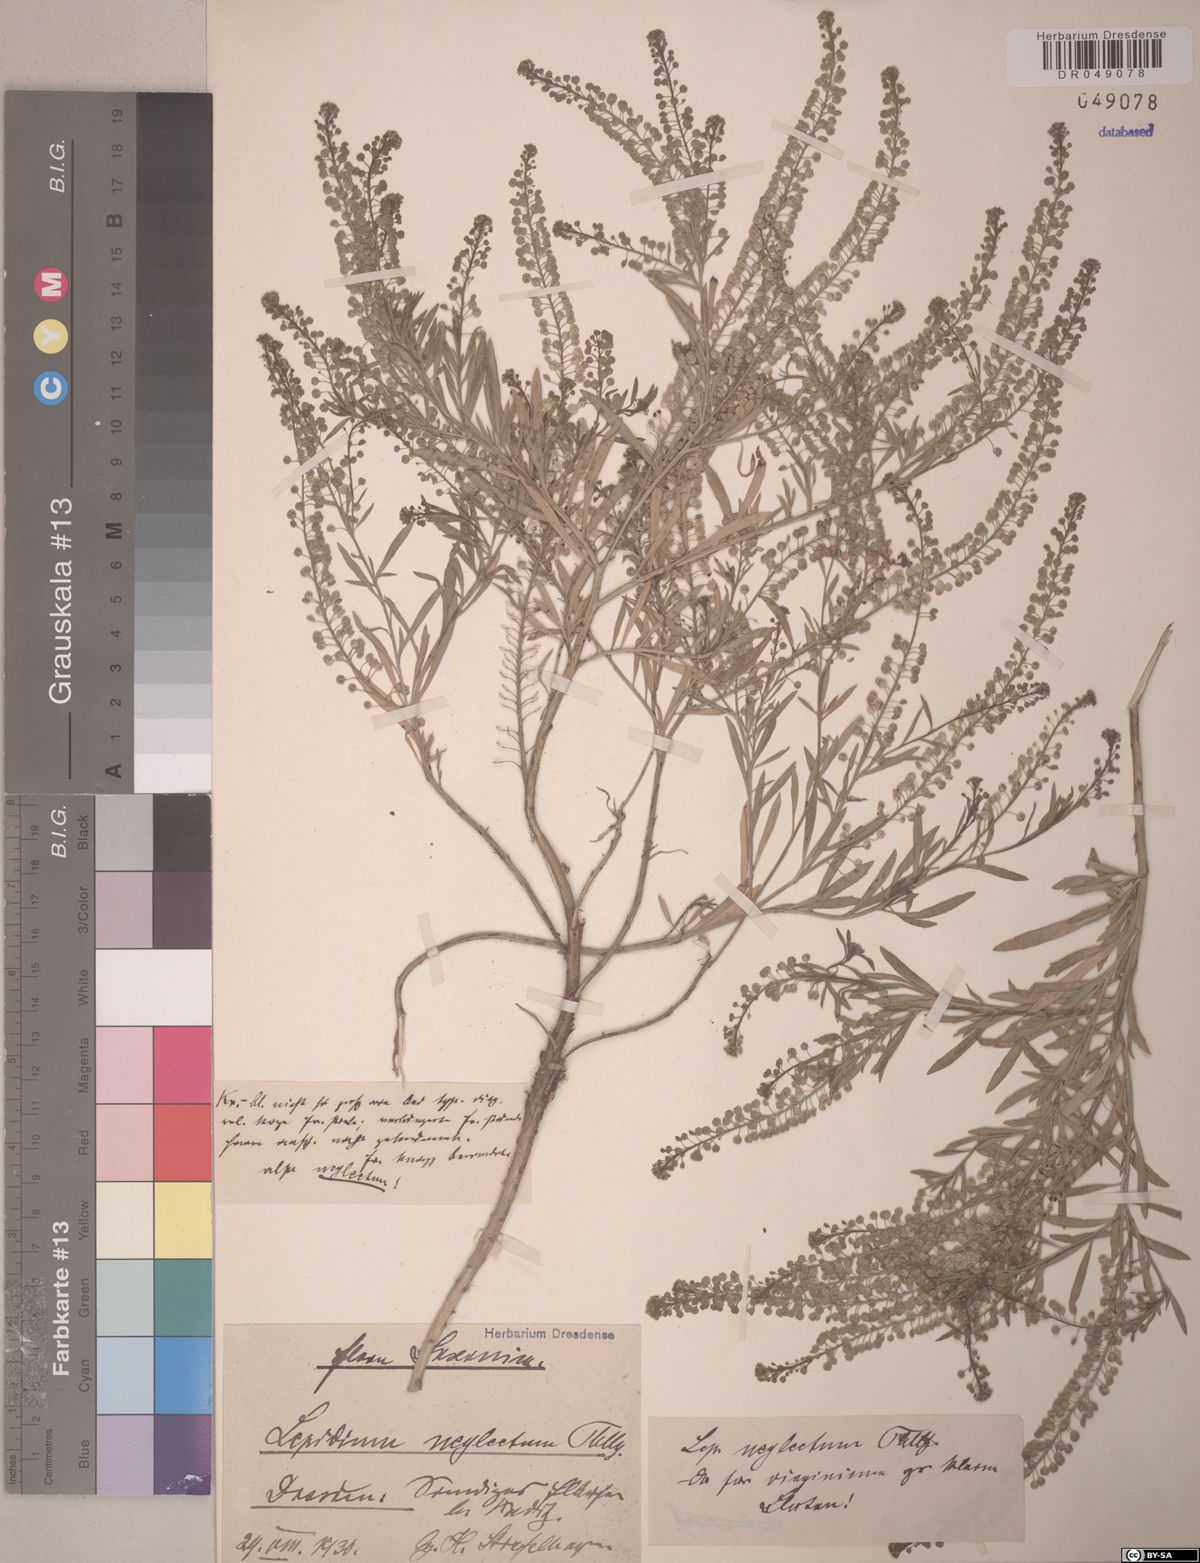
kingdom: Plantae
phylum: Tracheophyta
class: Magnoliopsida
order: Brassicales
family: Brassicaceae
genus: Lepidium
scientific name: Lepidium densiflorum
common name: Miner's pepperwort
